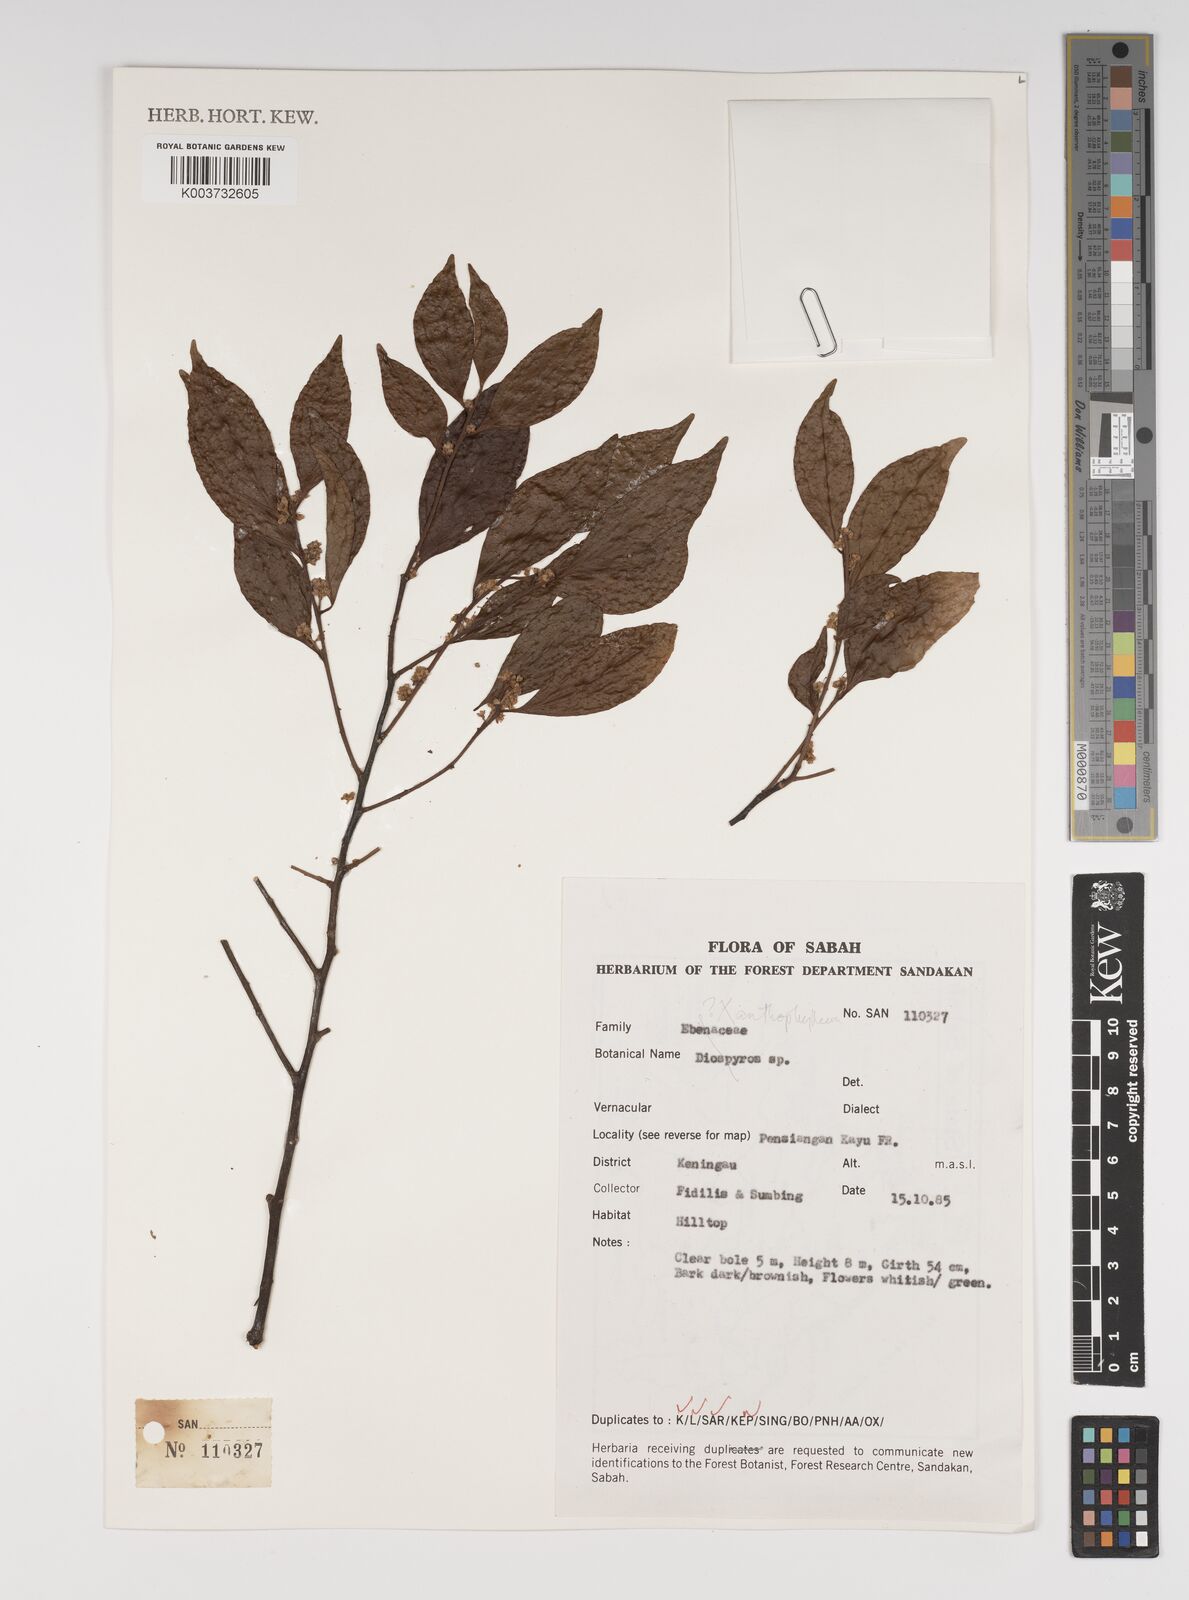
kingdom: Plantae
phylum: Tracheophyta
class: Magnoliopsida
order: Fabales
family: Polygalaceae
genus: Xanthophyllum
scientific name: Xanthophyllum
